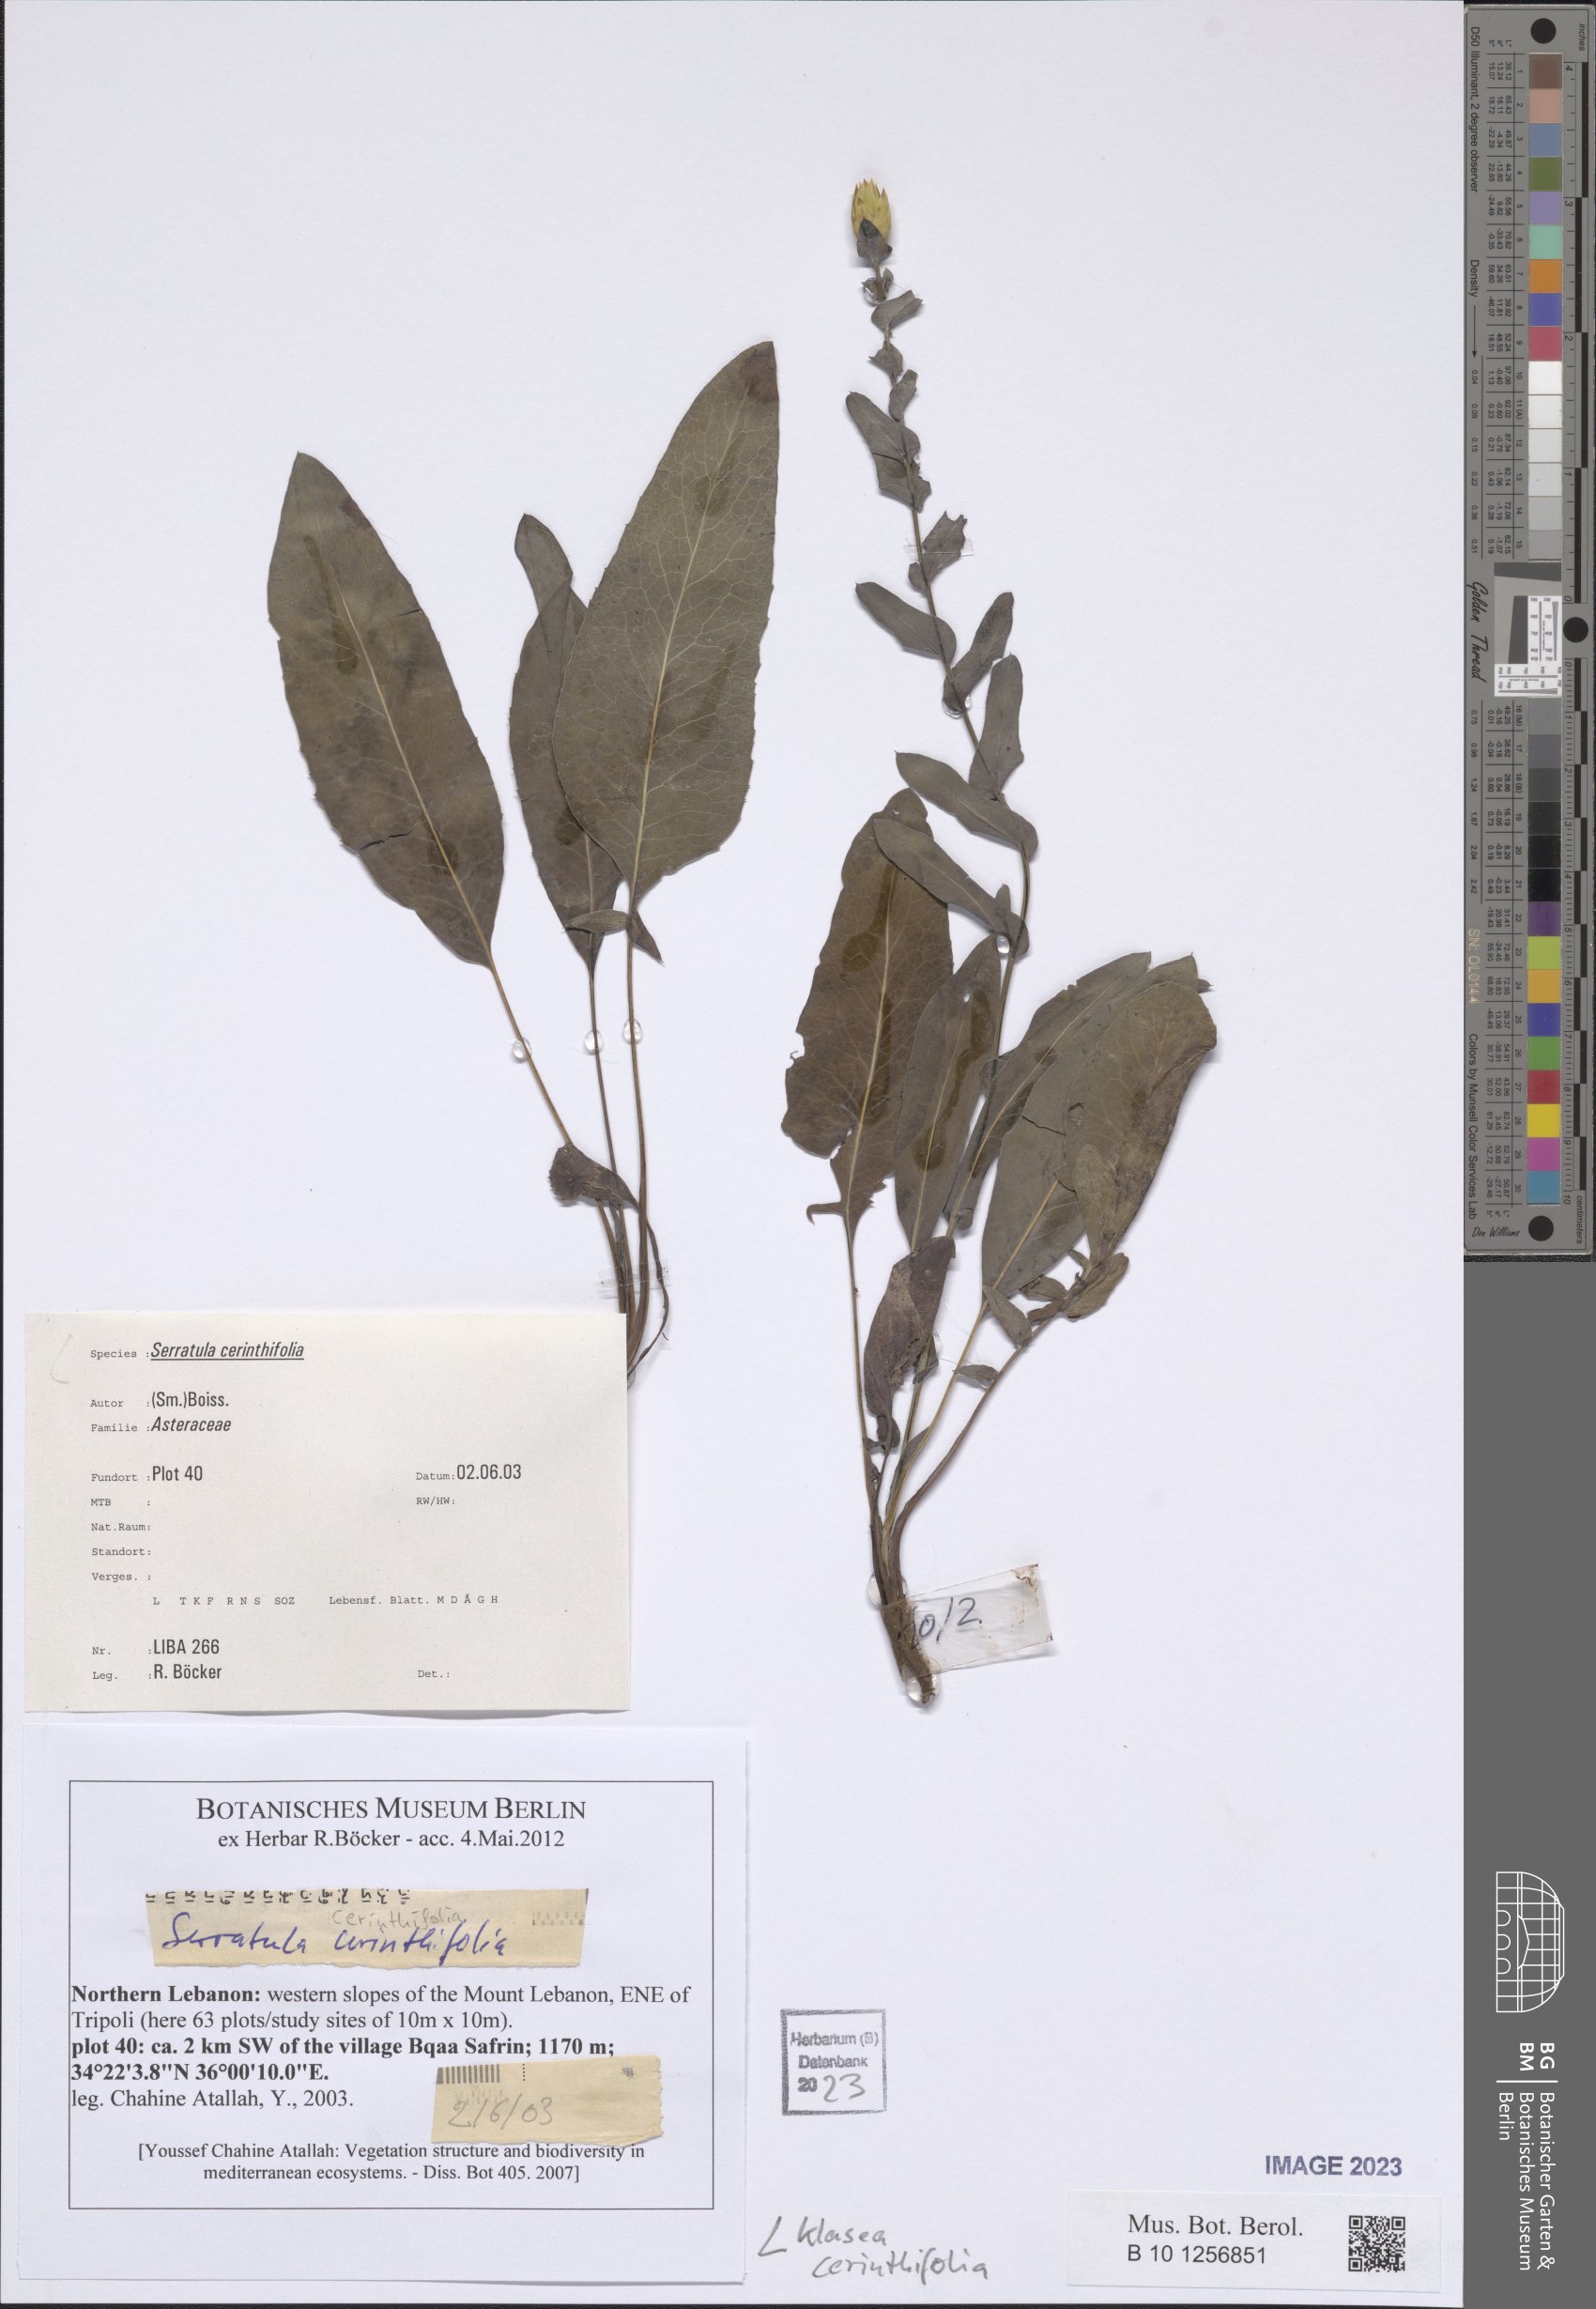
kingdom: Plantae
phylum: Tracheophyta
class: Magnoliopsida
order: Asterales
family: Asteraceae
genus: Klasea
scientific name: Klasea cerinthifolia
